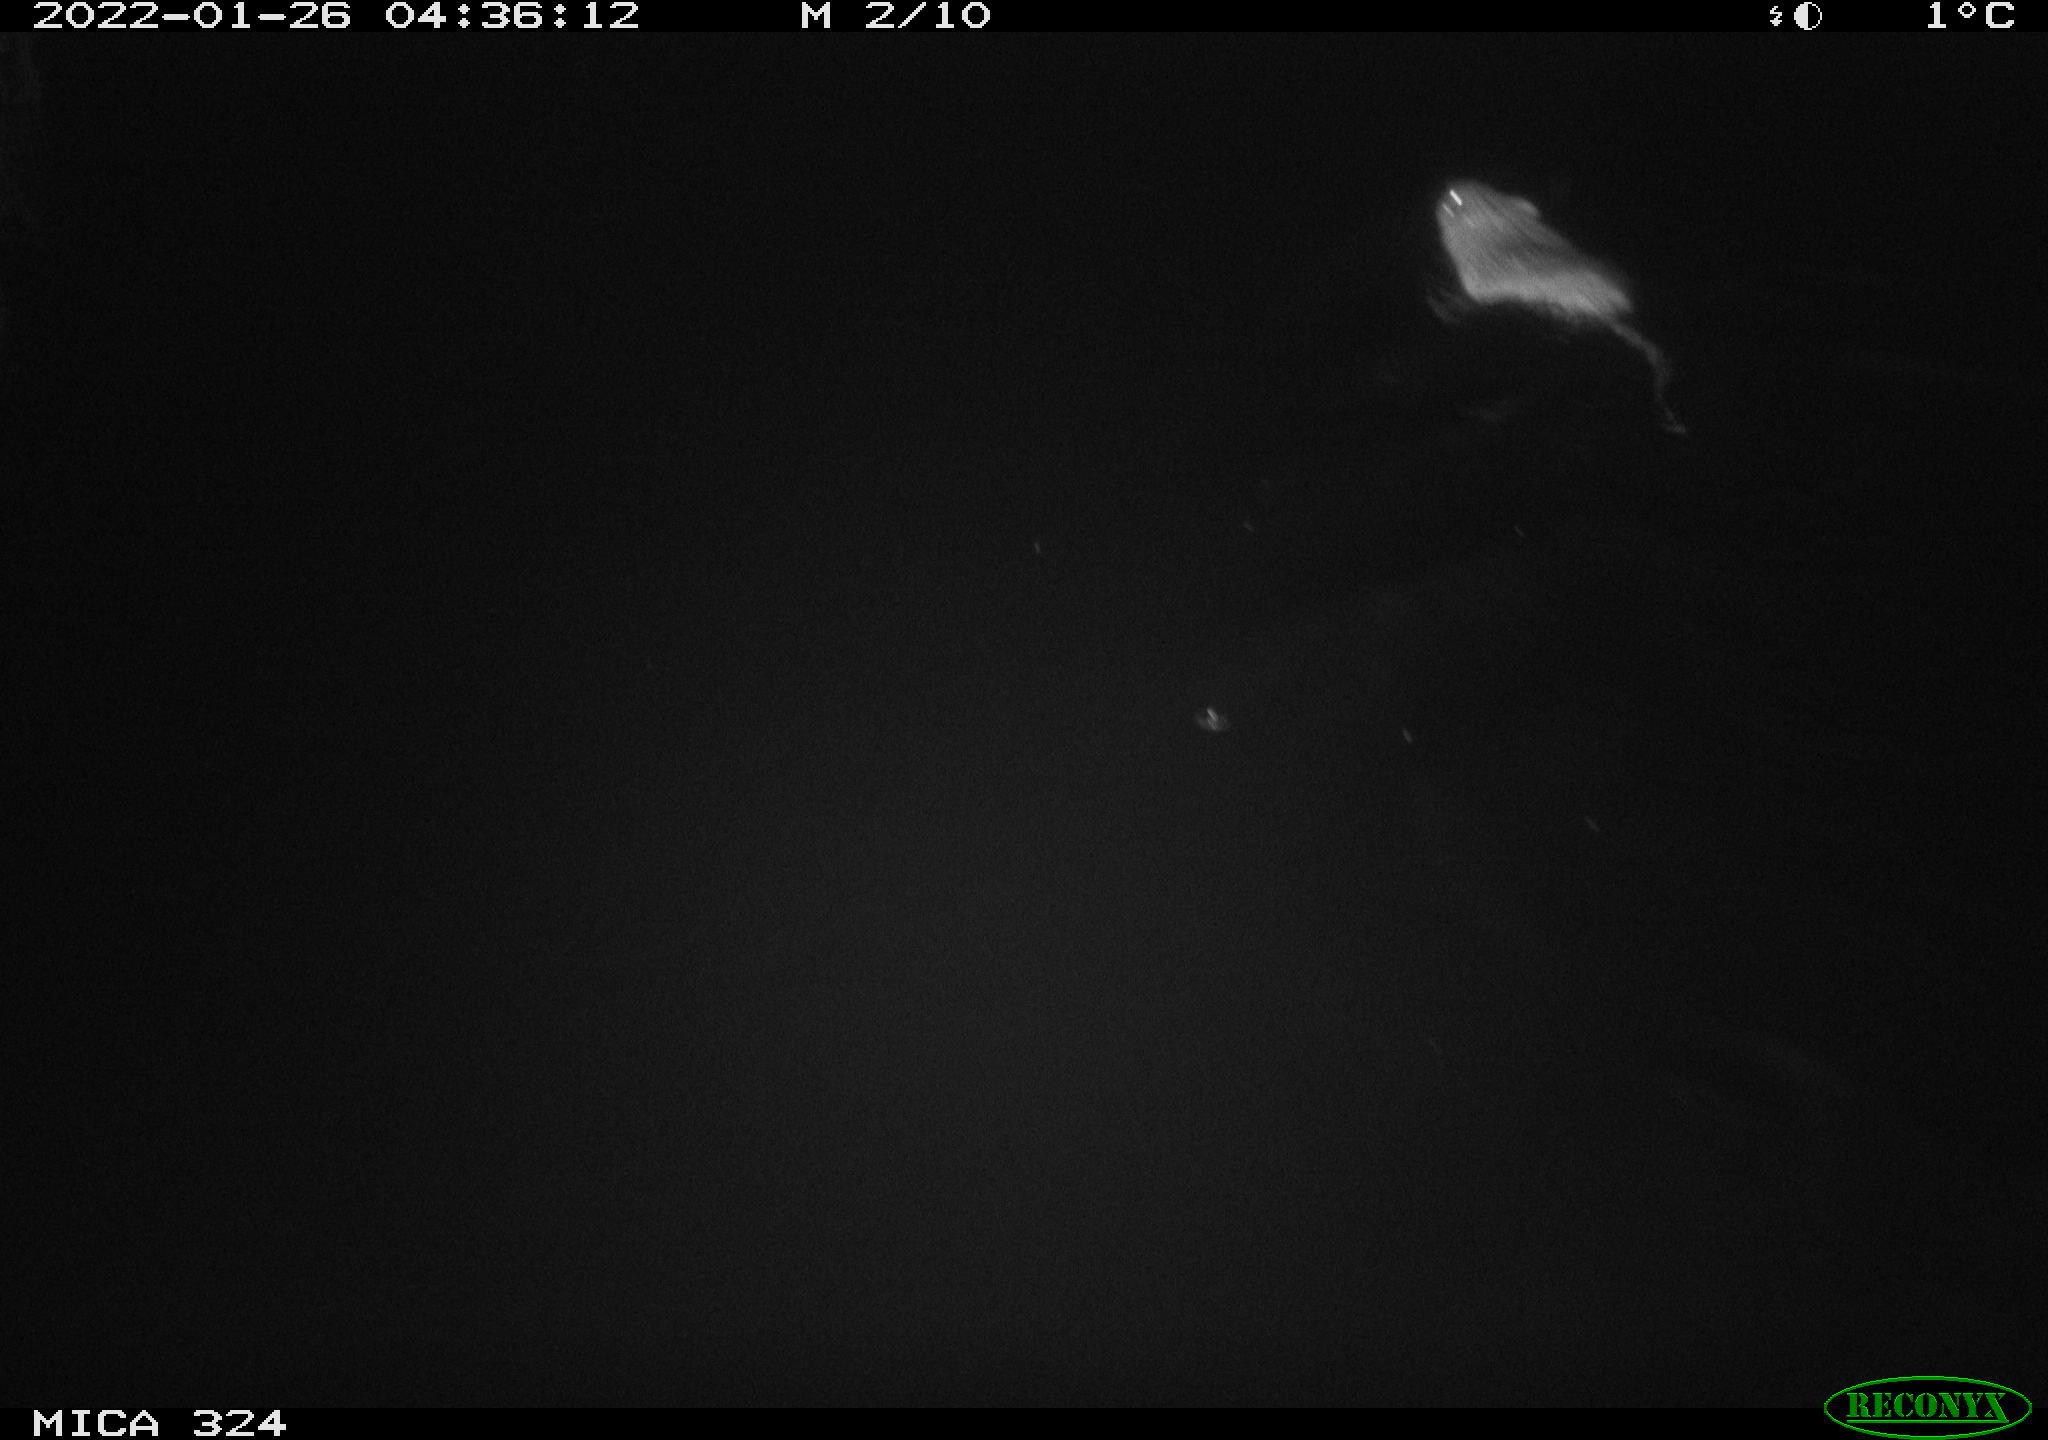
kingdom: Animalia
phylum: Chordata
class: Mammalia
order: Rodentia
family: Cricetidae
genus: Ondatra
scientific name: Ondatra zibethicus
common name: Muskrat
